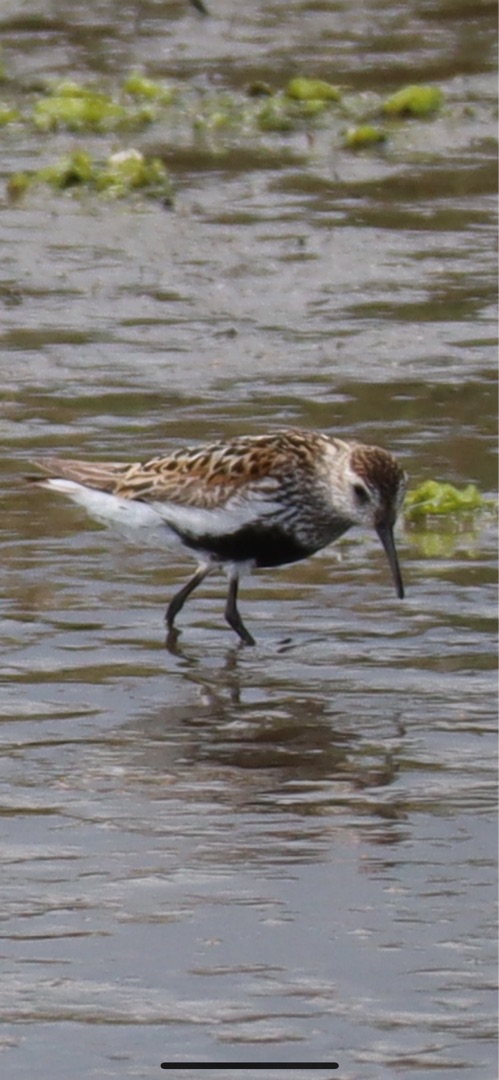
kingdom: Animalia
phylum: Chordata
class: Aves
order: Charadriiformes
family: Scolopacidae
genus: Calidris
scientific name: Calidris alpina
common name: Almindelig ryle
